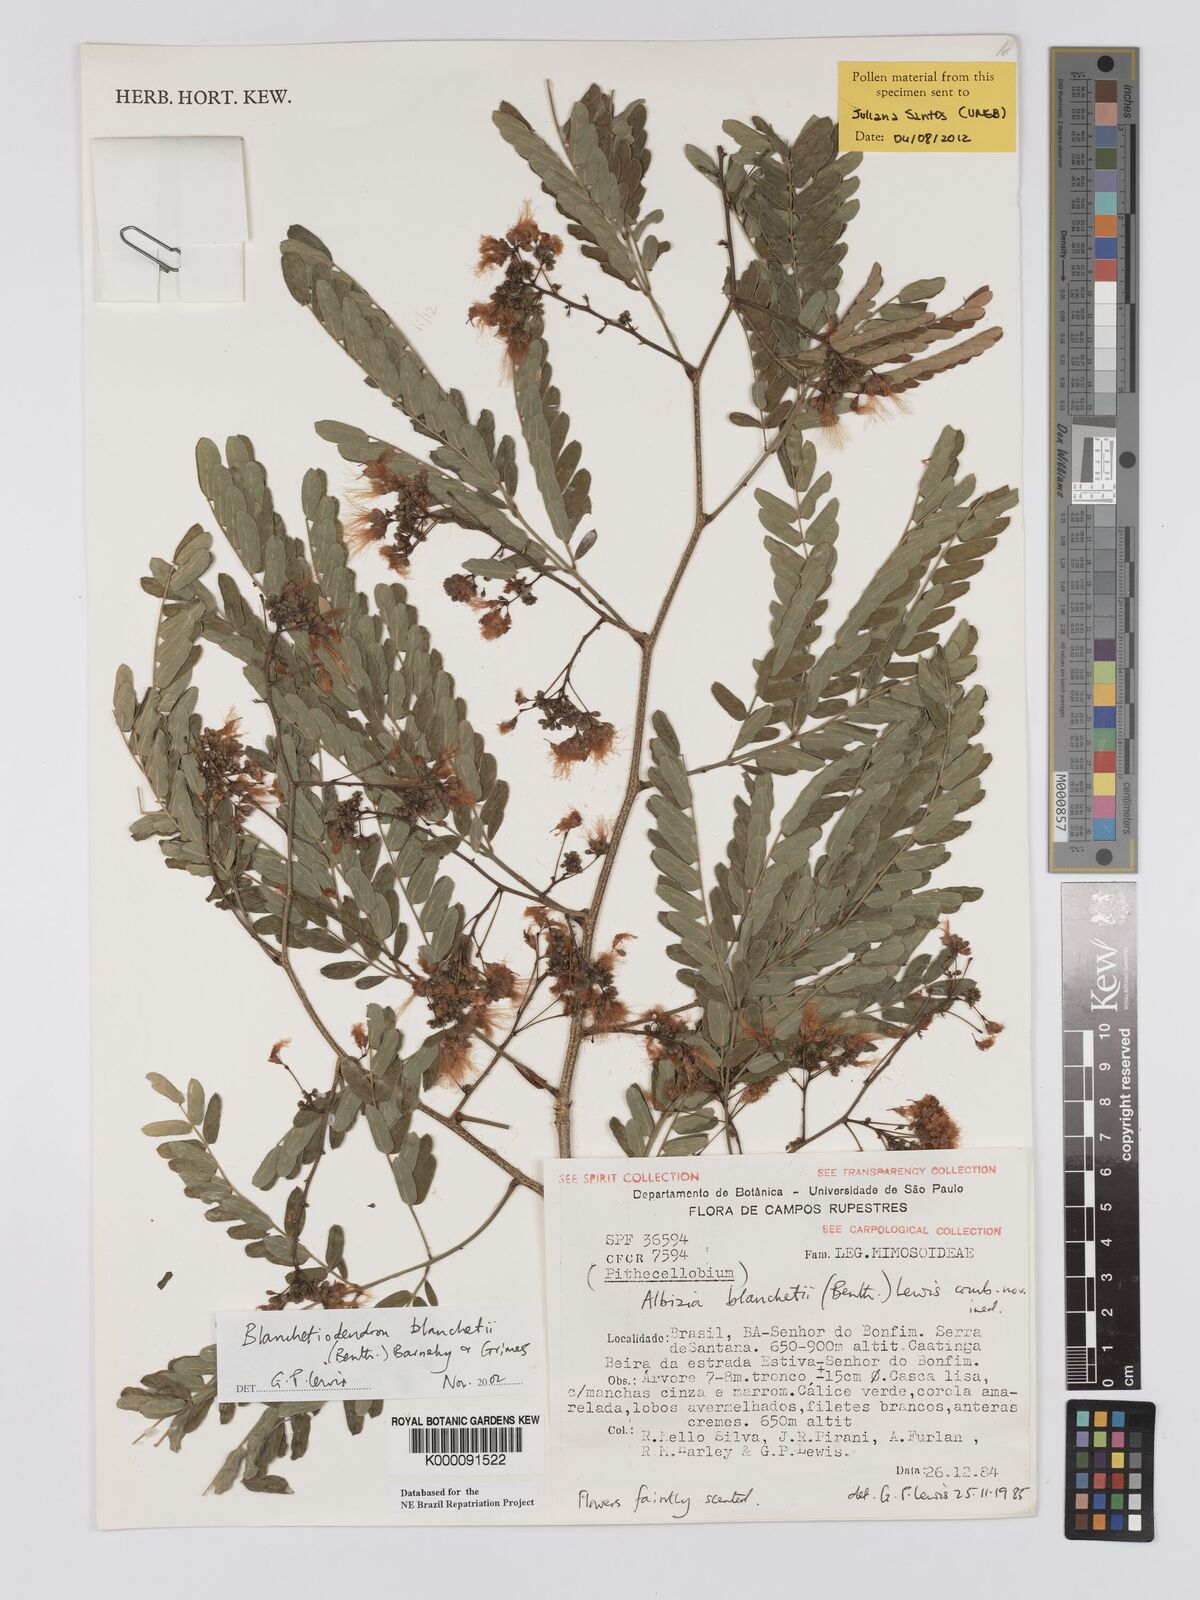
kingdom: Plantae
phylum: Tracheophyta
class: Magnoliopsida
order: Fabales
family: Fabaceae
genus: Blanchetiodendron
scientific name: Blanchetiodendron blanchetii
